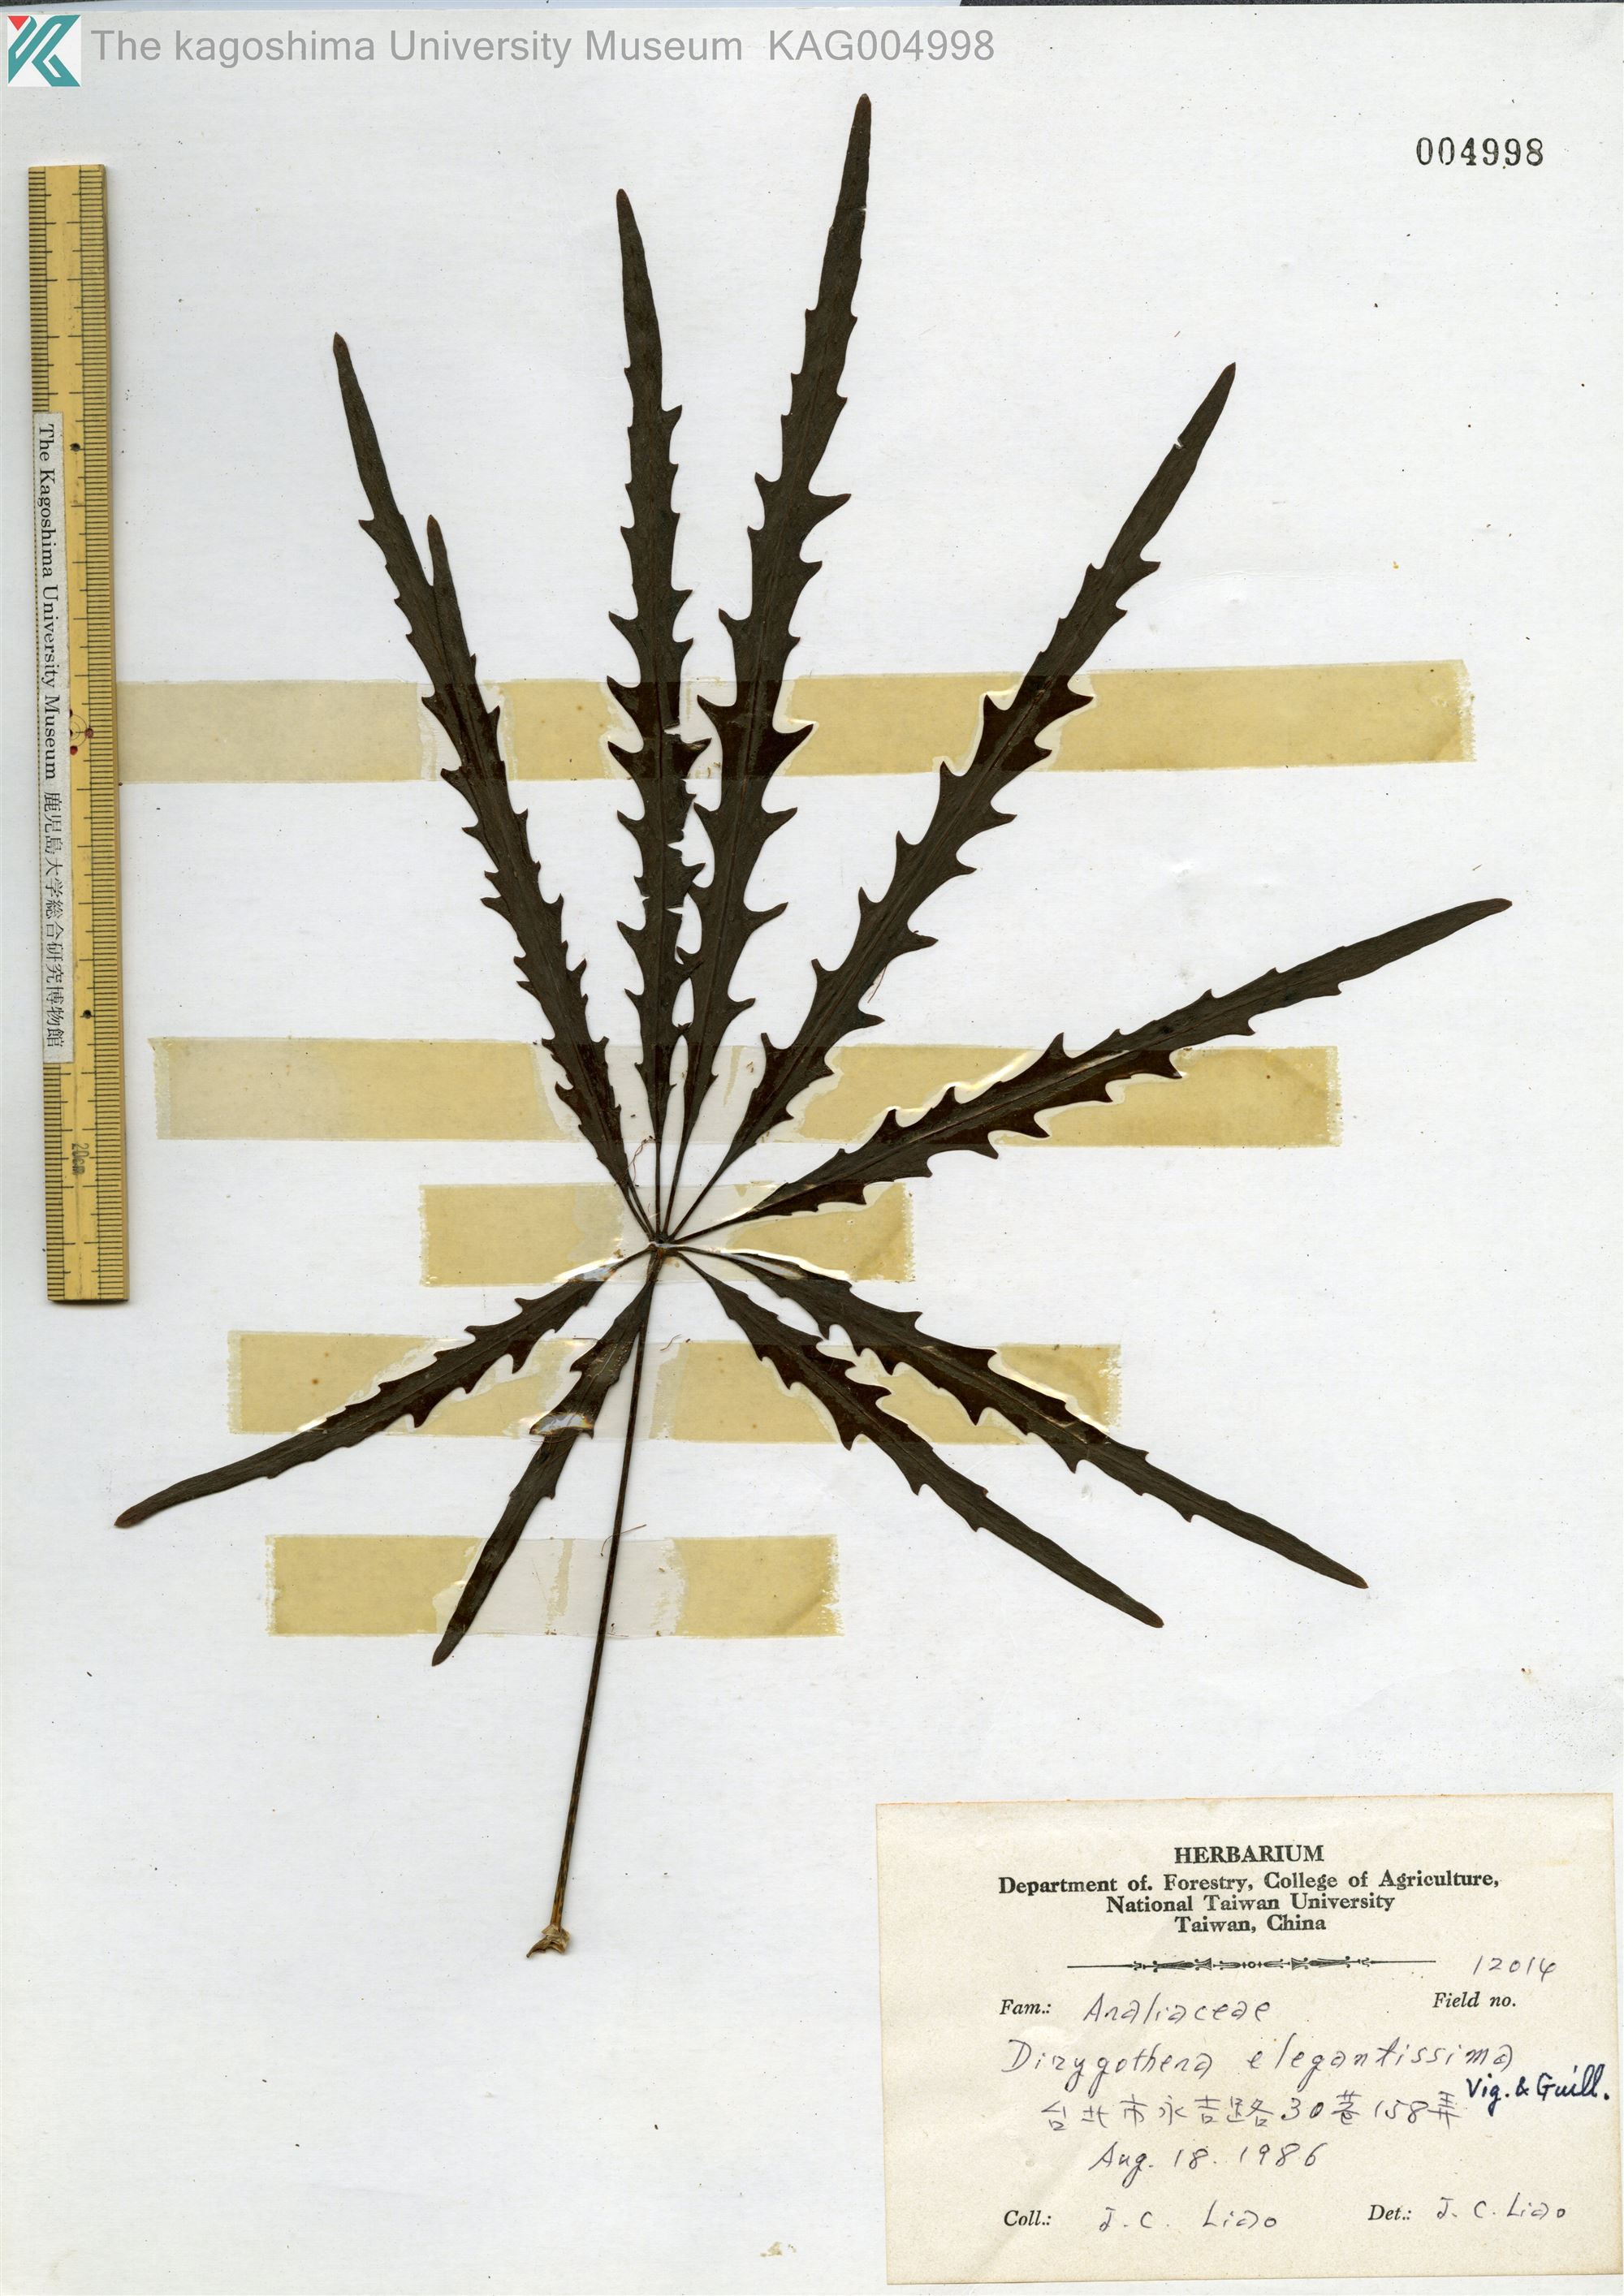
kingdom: Plantae
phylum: Tracheophyta
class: Magnoliopsida
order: Apiales
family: Araliaceae
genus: Plerandra
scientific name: Plerandra elegantissima
